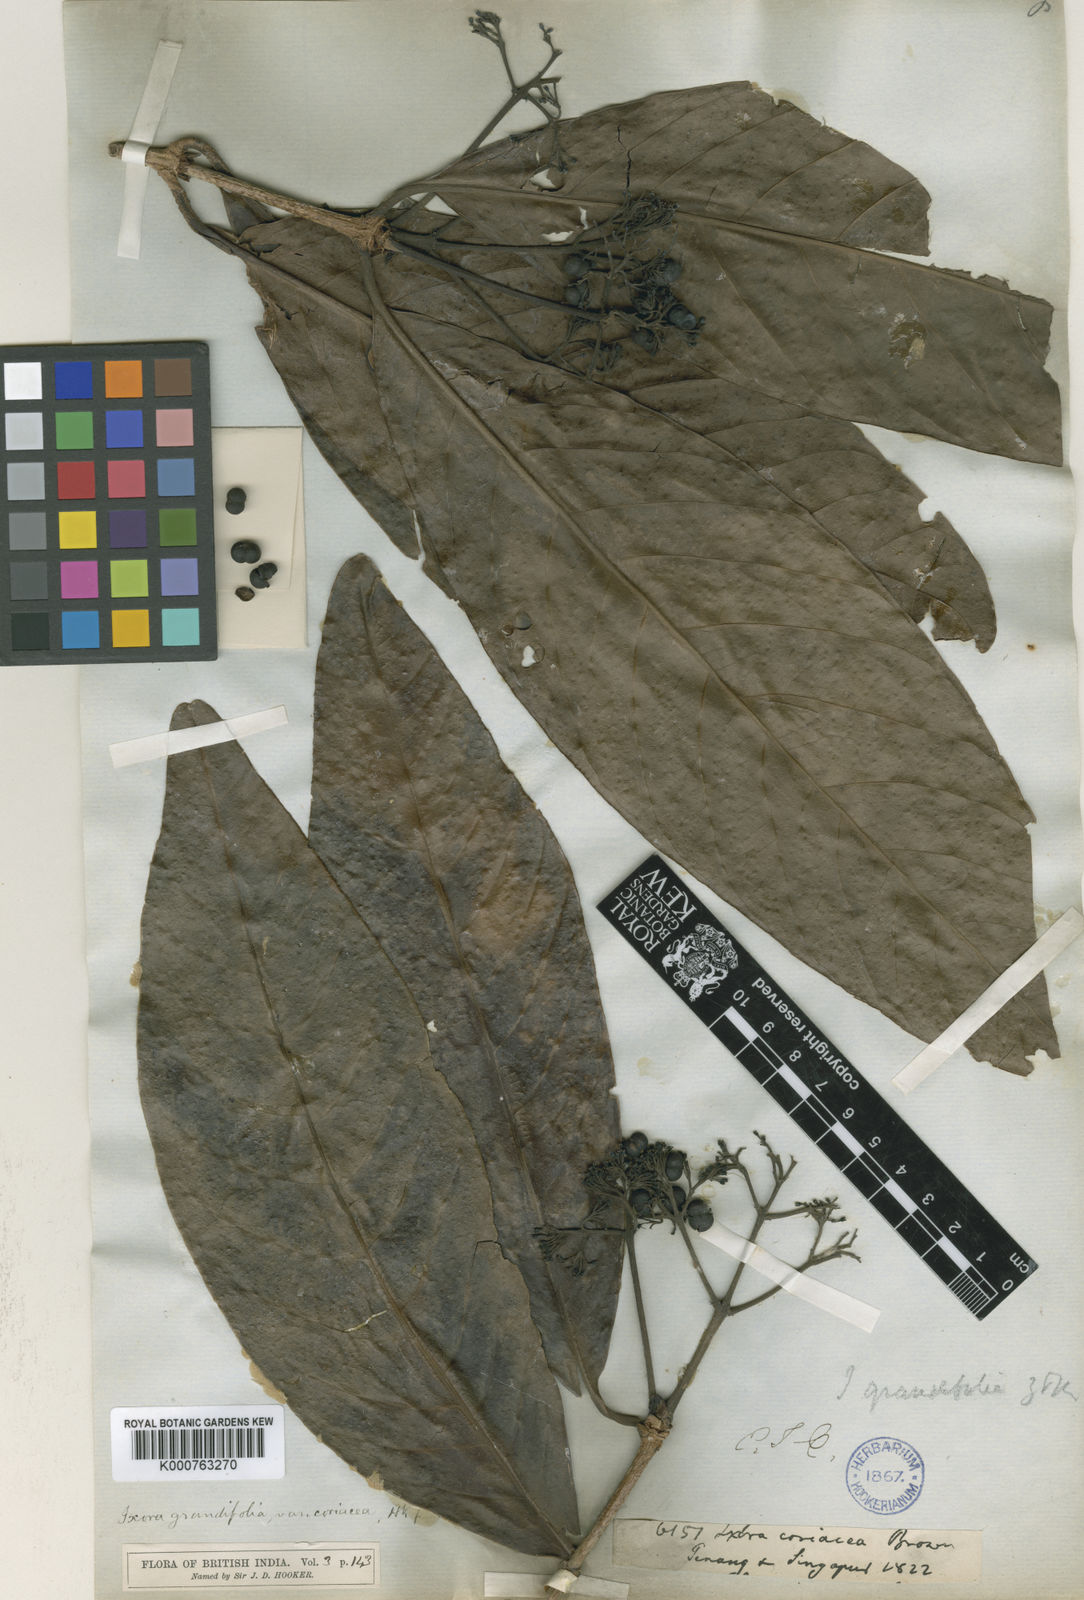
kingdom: Plantae
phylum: Tracheophyta
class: Magnoliopsida
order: Gentianales
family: Rubiaceae
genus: Ixora
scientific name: Ixora grandifolia
